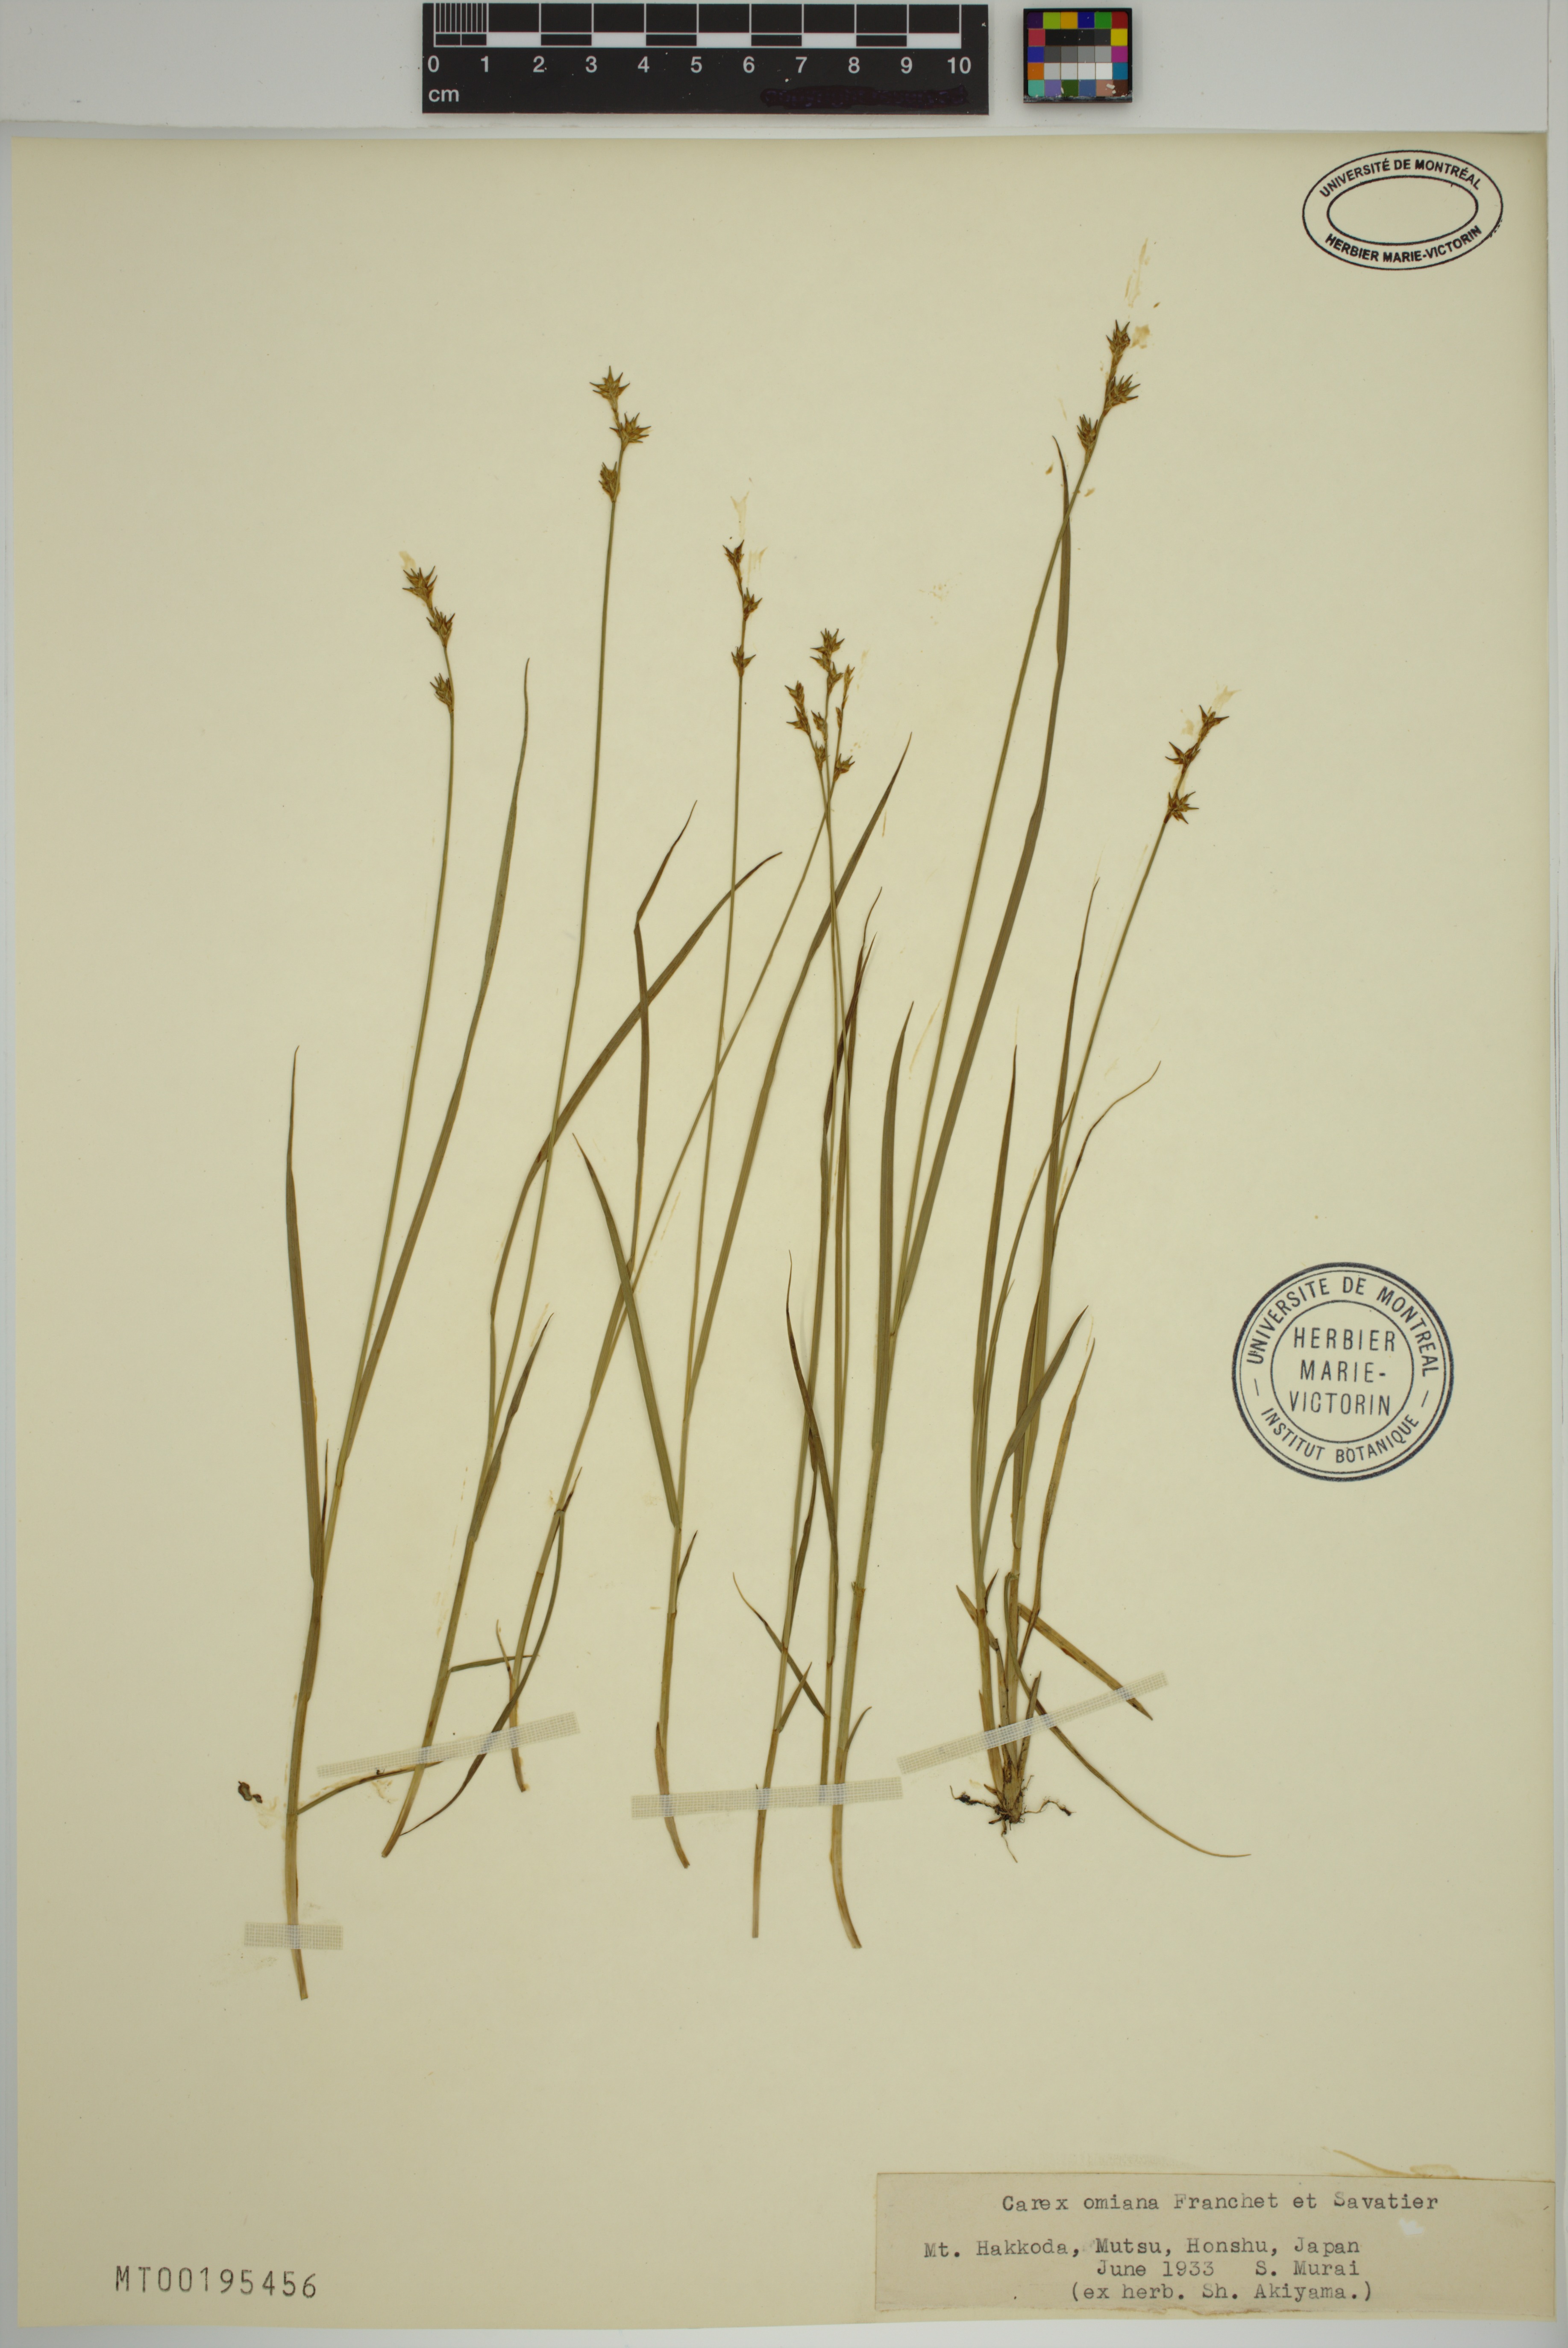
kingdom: Plantae
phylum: Tracheophyta
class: Liliopsida
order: Poales
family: Cyperaceae
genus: Carex
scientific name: Carex omiana
